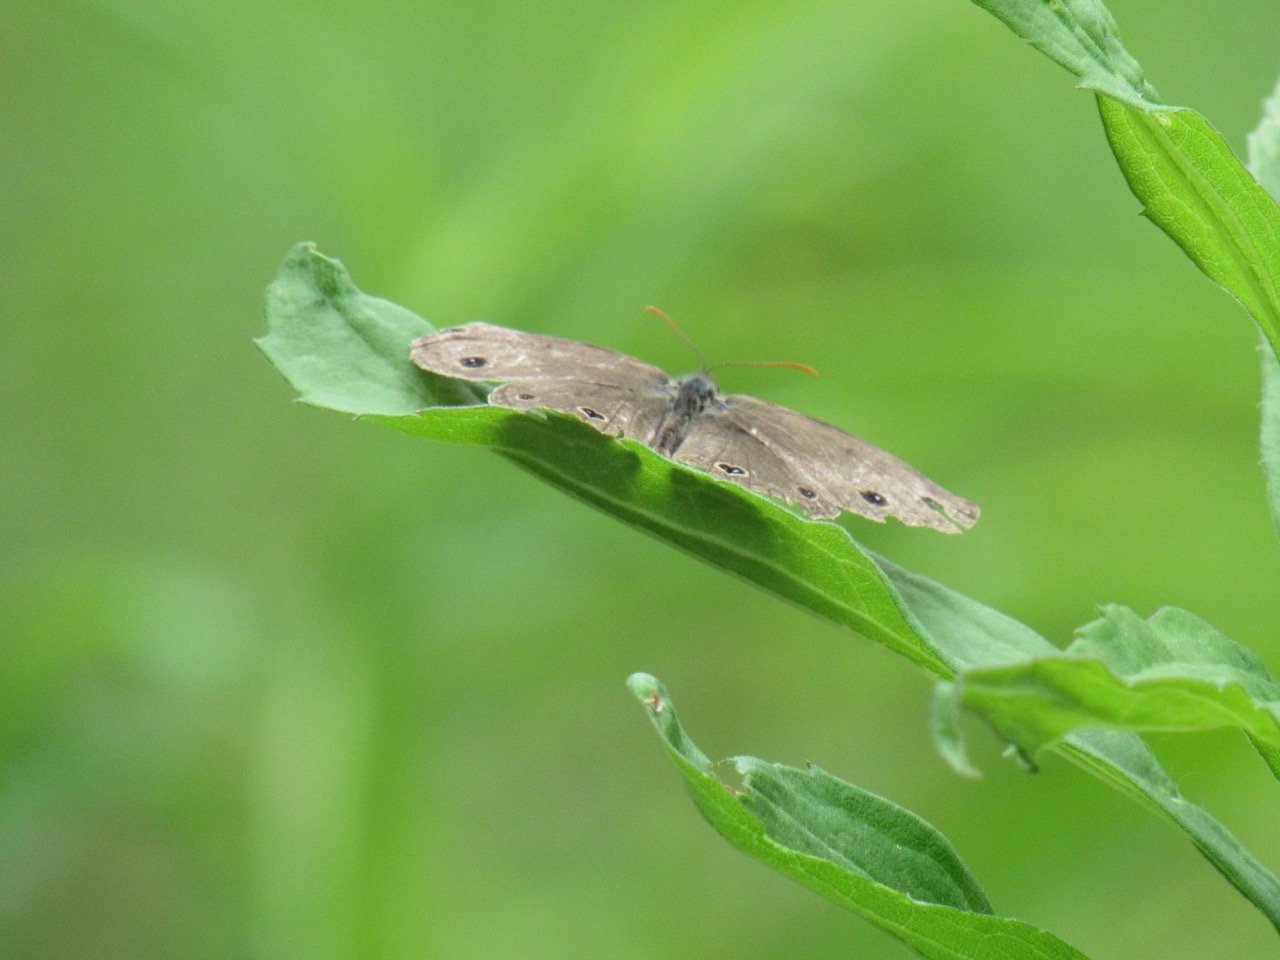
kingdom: Animalia
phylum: Arthropoda
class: Insecta
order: Lepidoptera
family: Nymphalidae
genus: Euptychia
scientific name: Euptychia cymela
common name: Little Wood Satyr
